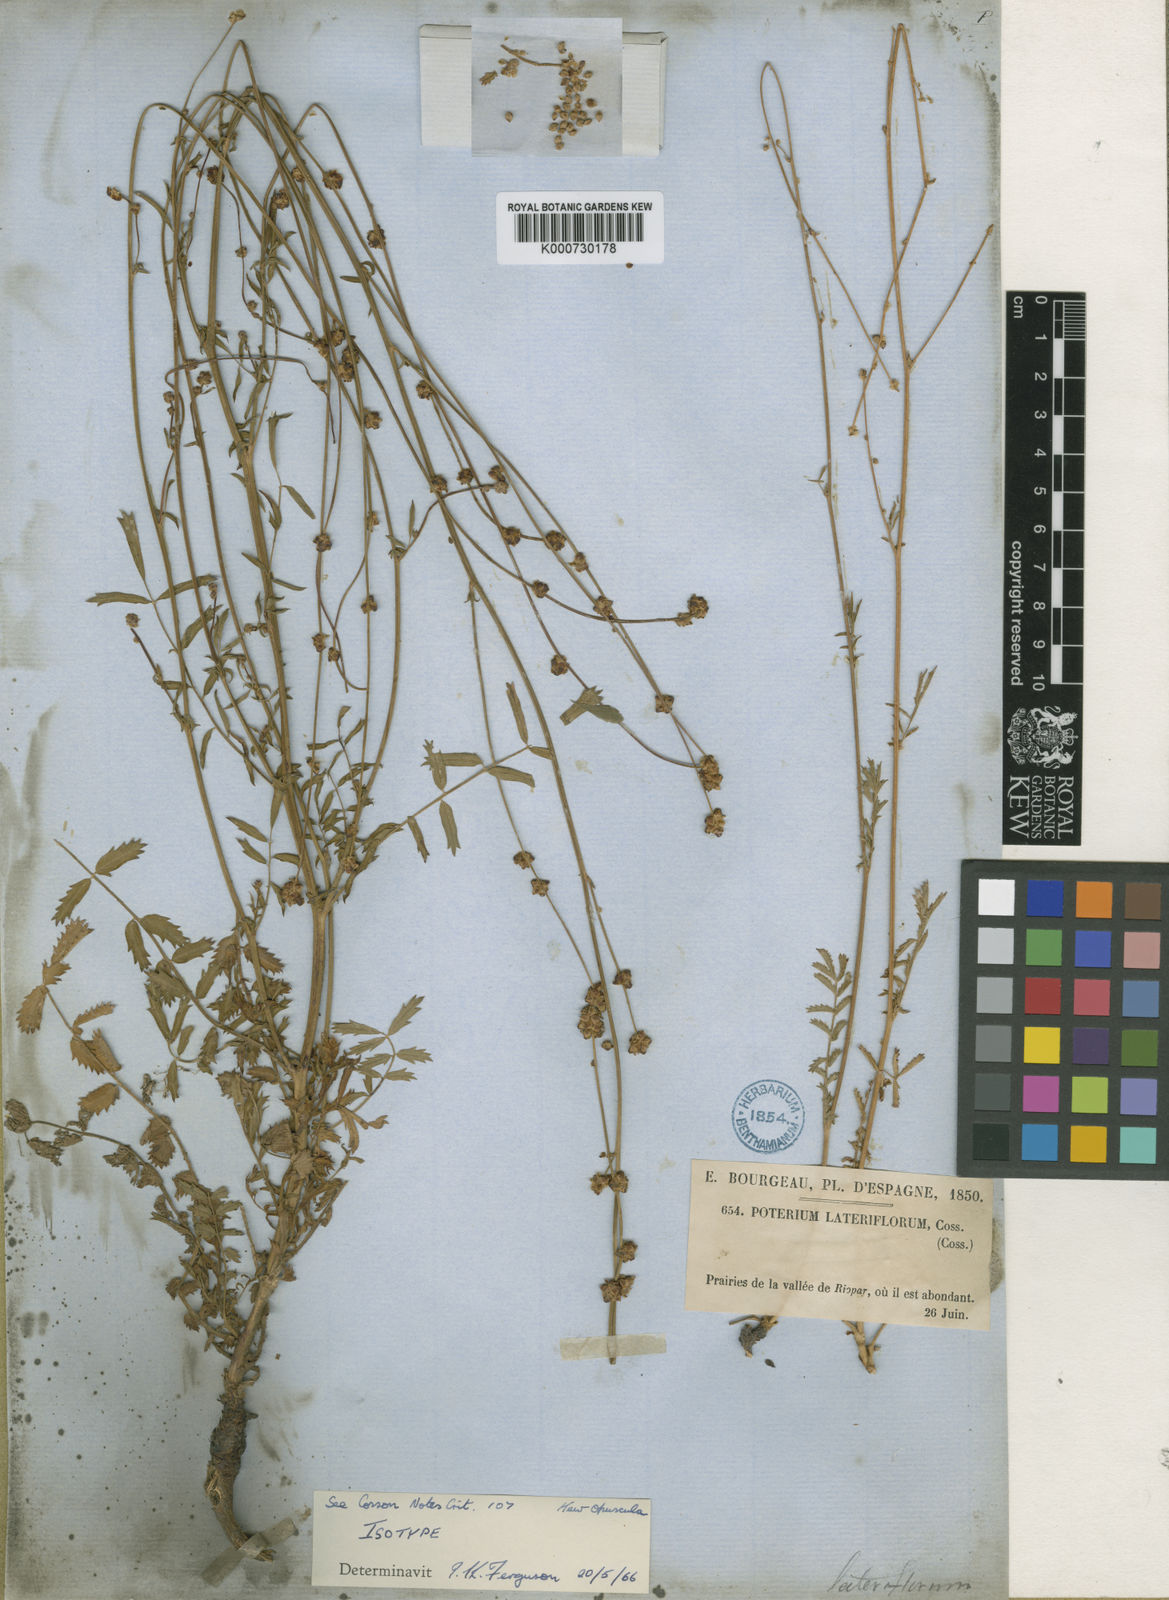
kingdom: Plantae
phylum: Tracheophyta
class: Magnoliopsida
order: Rosales
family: Rosaceae
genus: Poterium
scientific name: Poterium sanguisorba
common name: Salad burnet
